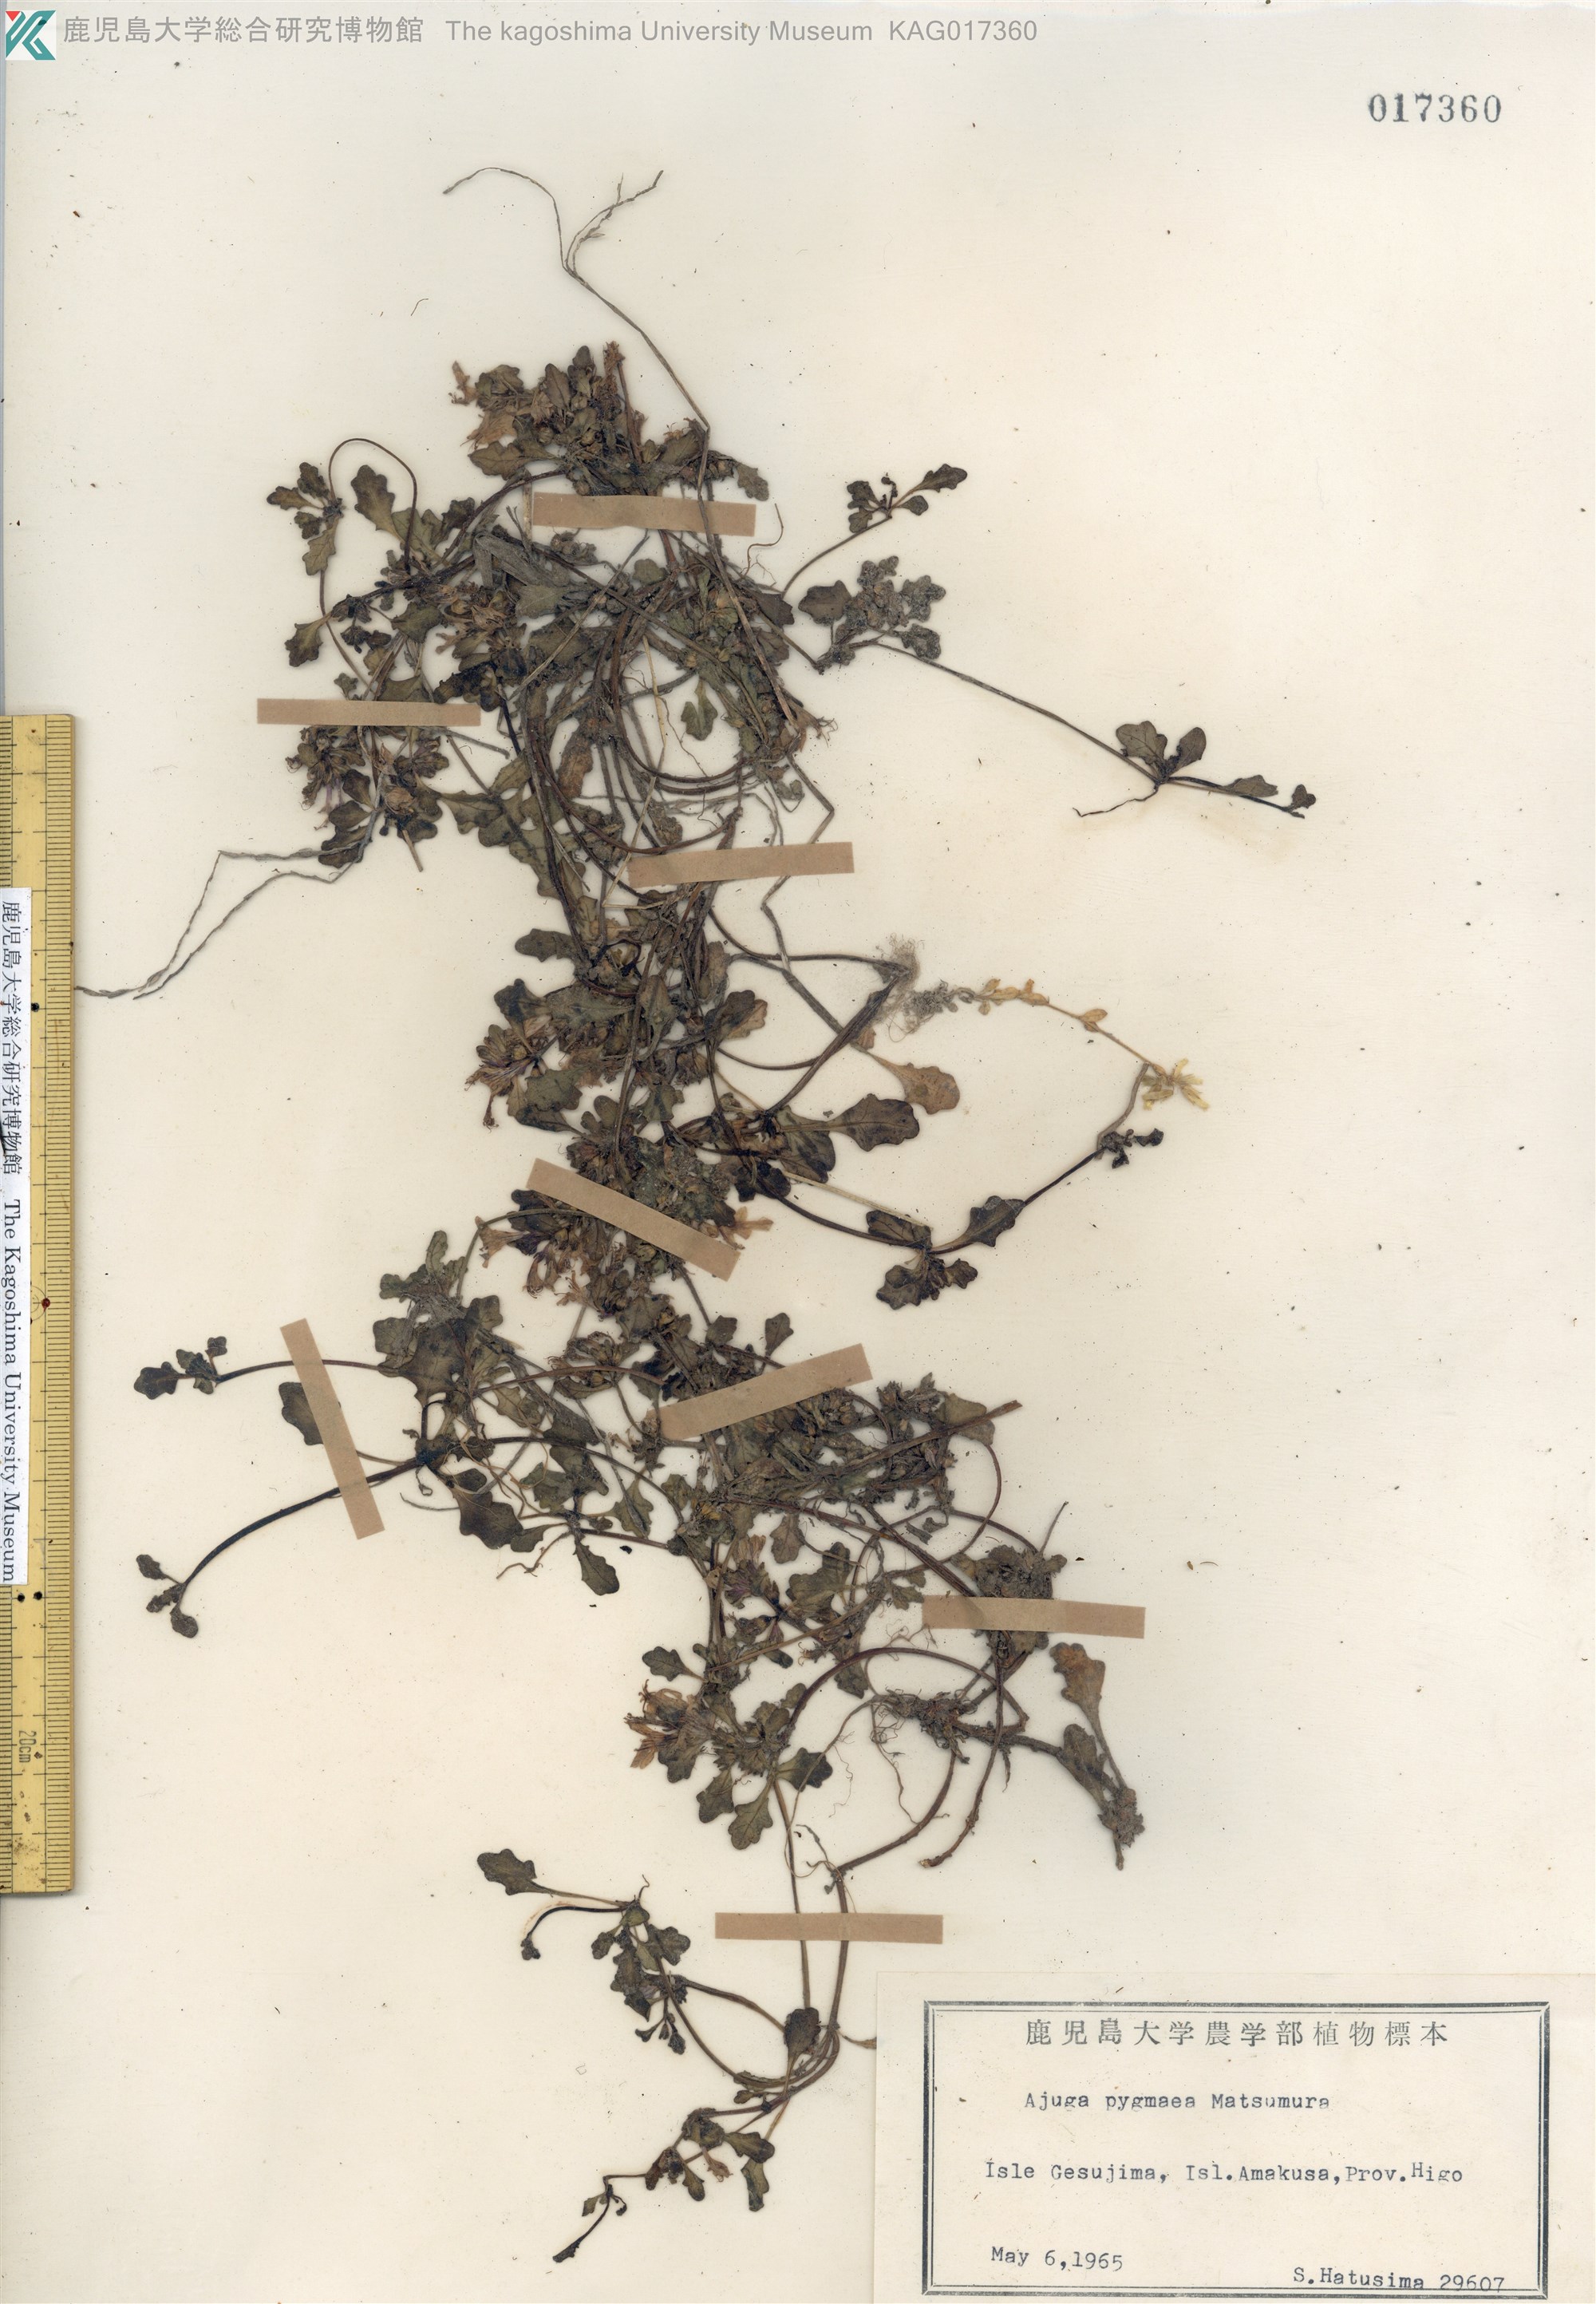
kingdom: Plantae
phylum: Tracheophyta
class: Magnoliopsida
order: Lamiales
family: Lamiaceae
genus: Ajuga
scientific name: Ajuga pygmaea
